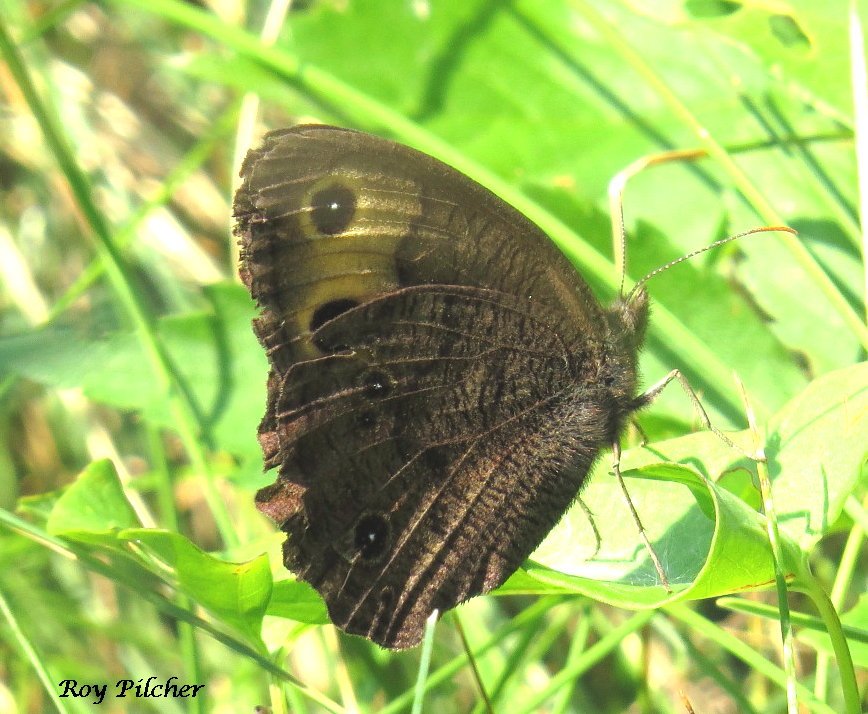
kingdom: Animalia
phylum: Arthropoda
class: Insecta
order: Lepidoptera
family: Nymphalidae
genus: Cercyonis
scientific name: Cercyonis pegala
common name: Common Wood-Nymph
